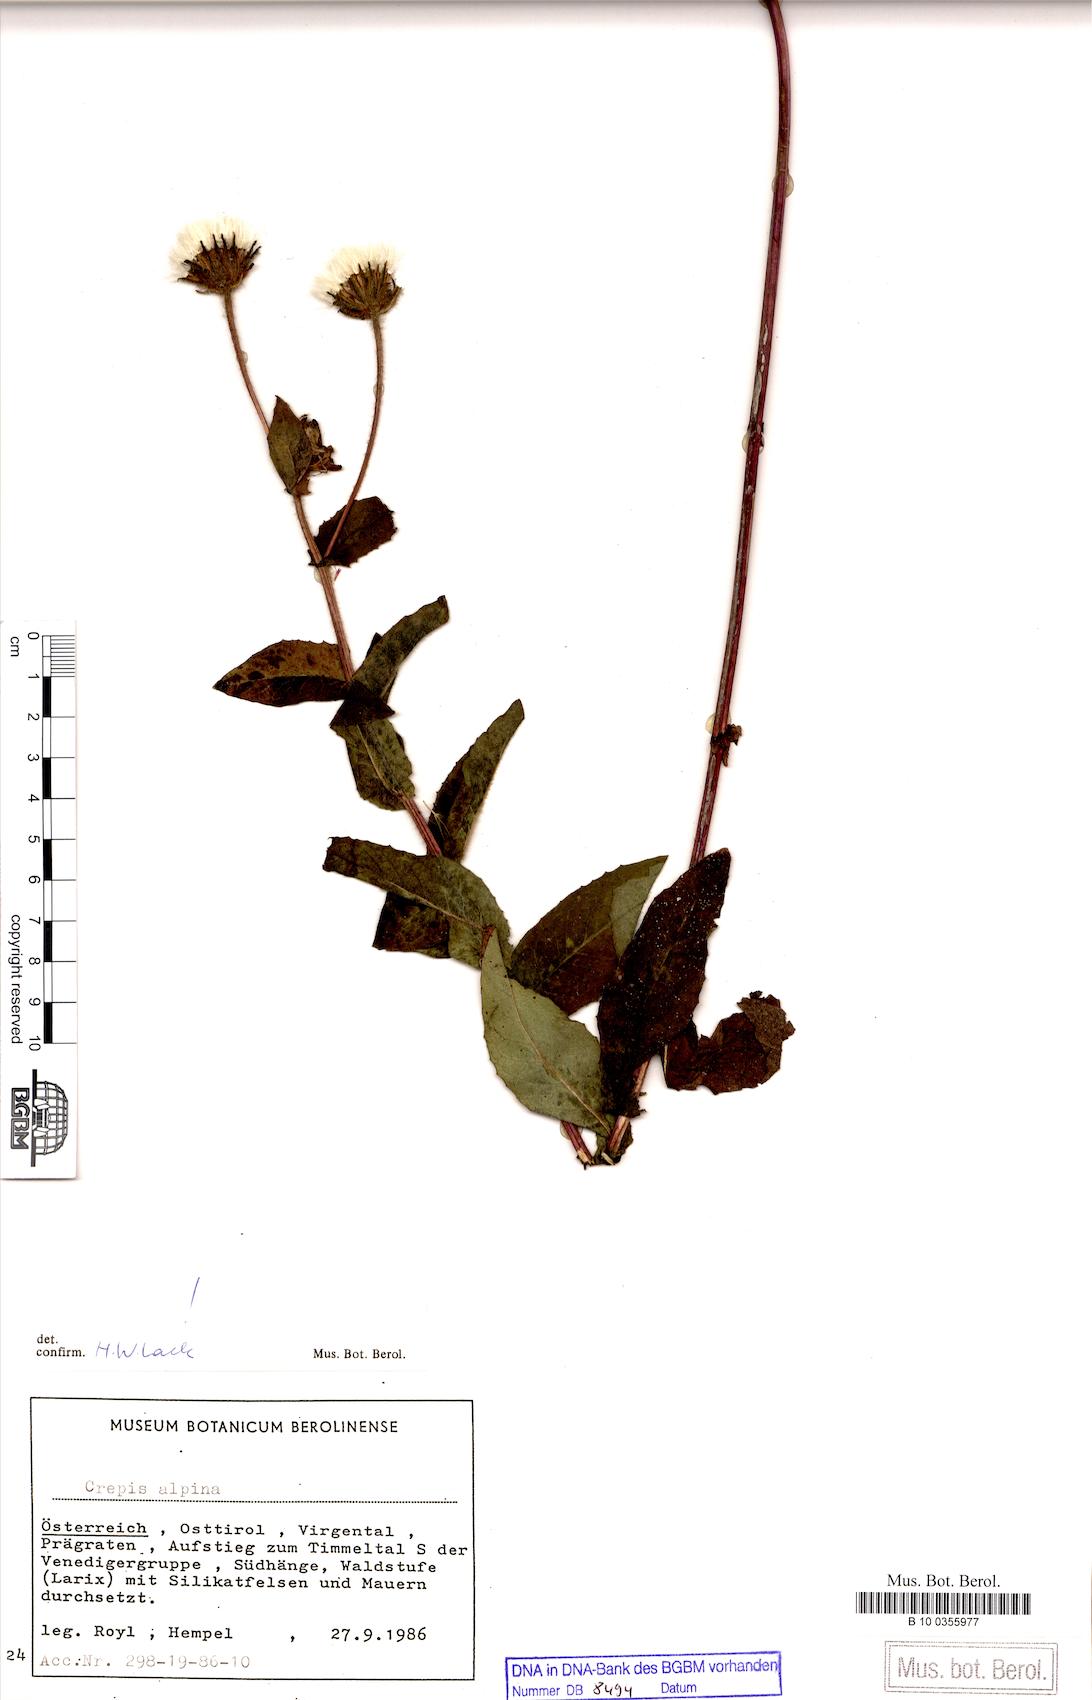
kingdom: Plantae
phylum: Tracheophyta
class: Magnoliopsida
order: Asterales
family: Asteraceae
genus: Crepis
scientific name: Crepis alpina
